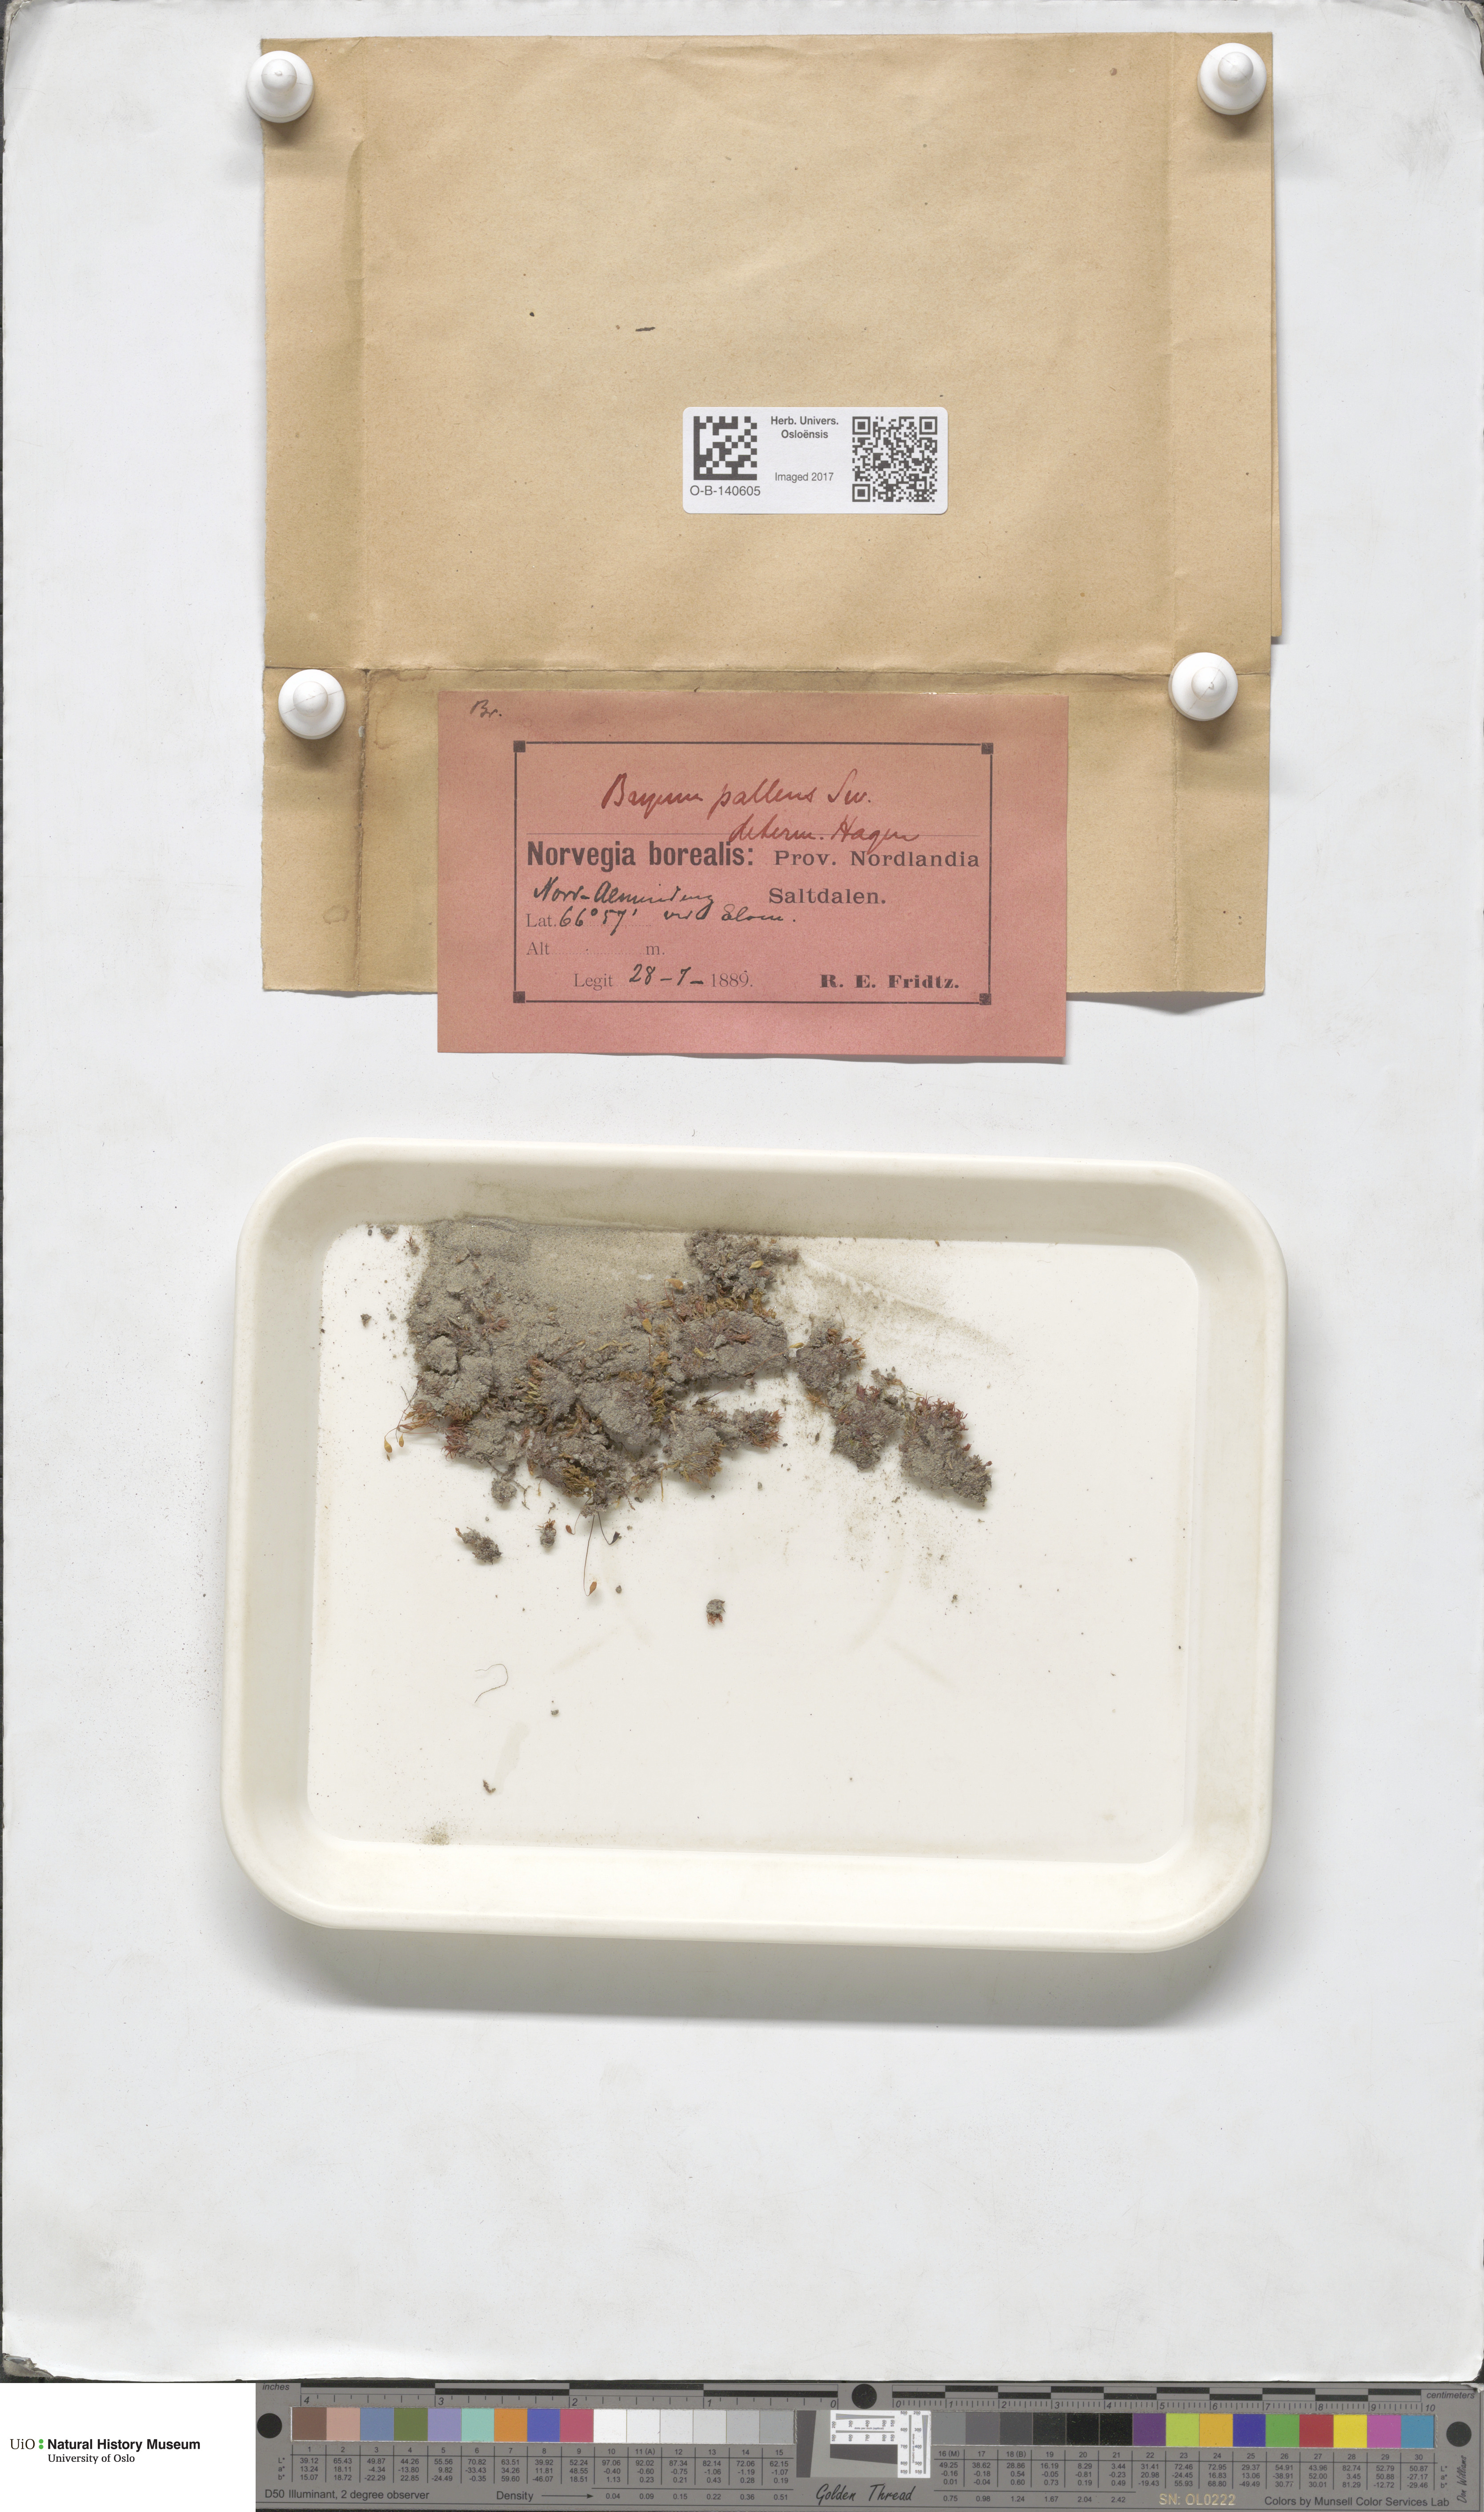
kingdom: Plantae
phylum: Bryophyta
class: Bryopsida
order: Bryales
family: Bryaceae
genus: Ptychostomum
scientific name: Ptychostomum pallens
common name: Pale thread-moss
